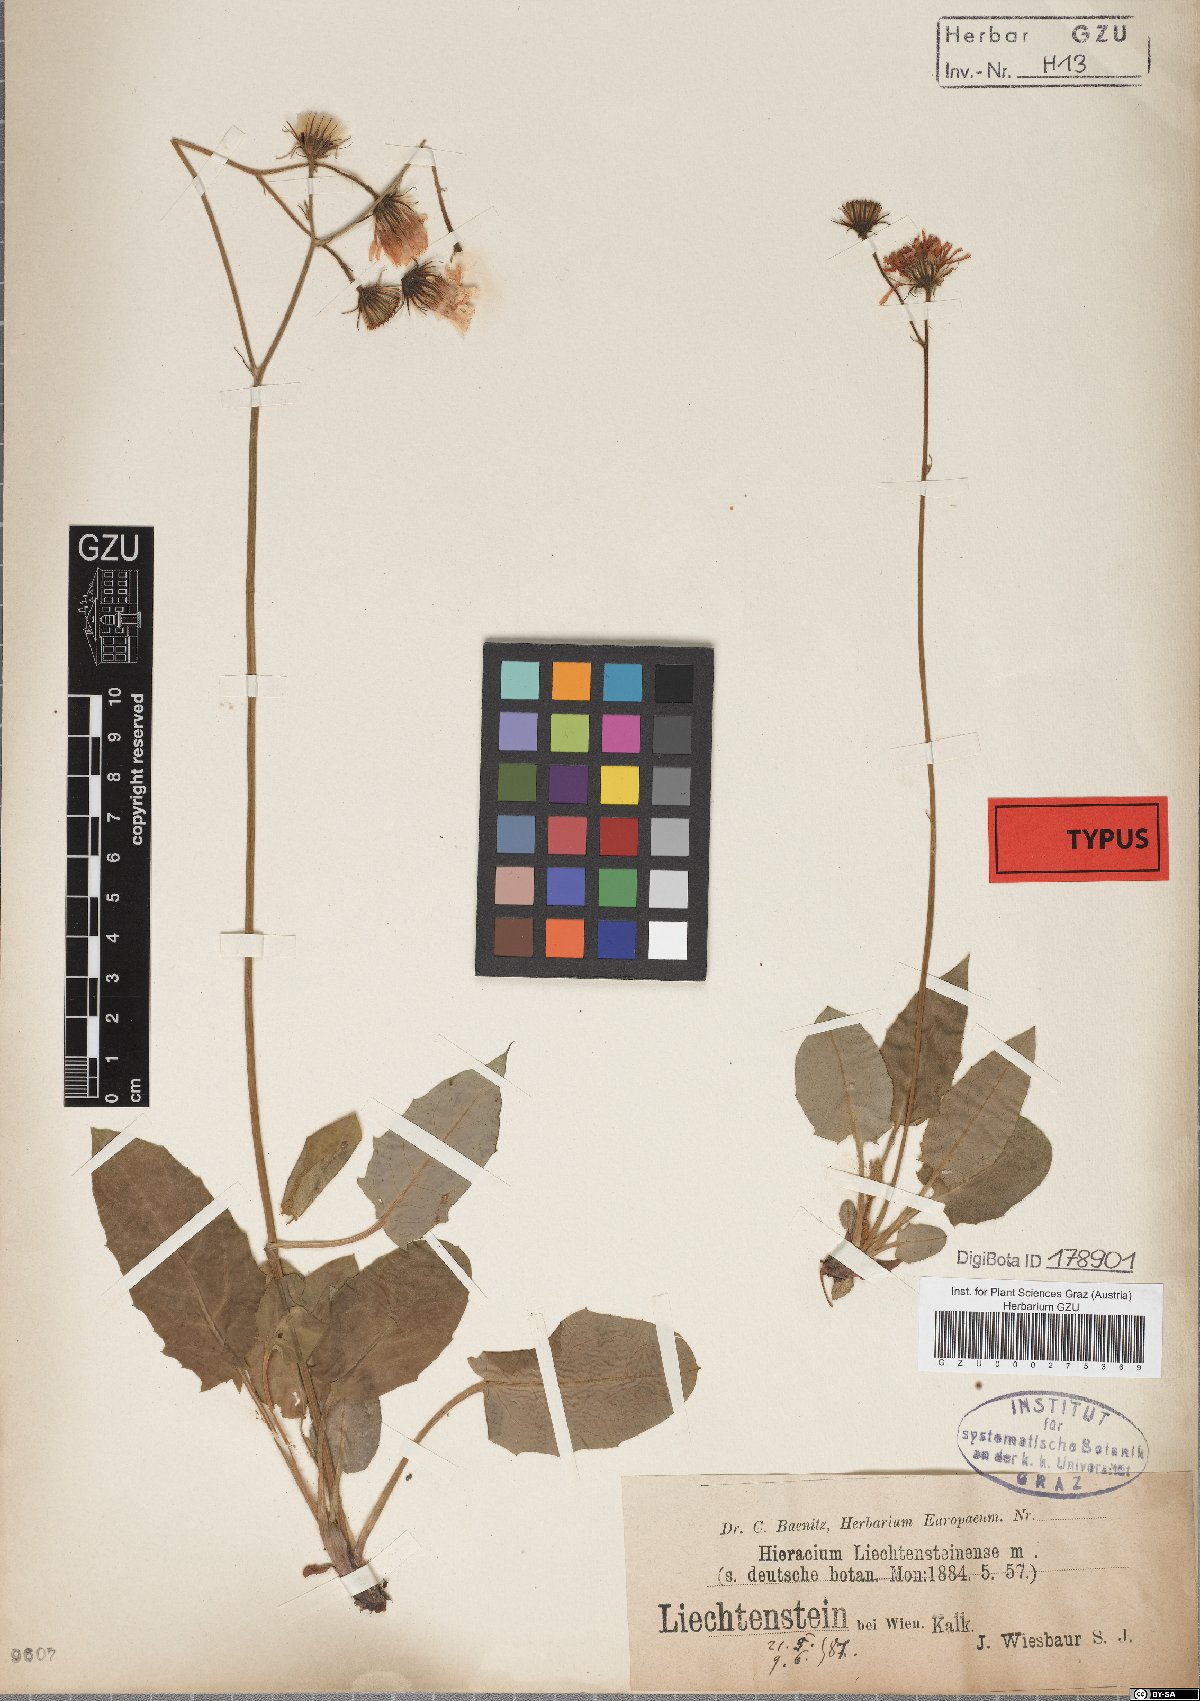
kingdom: Plantae
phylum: Tracheophyta
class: Magnoliopsida
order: Asterales
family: Asteraceae
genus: Hieracium
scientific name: Hieracium
